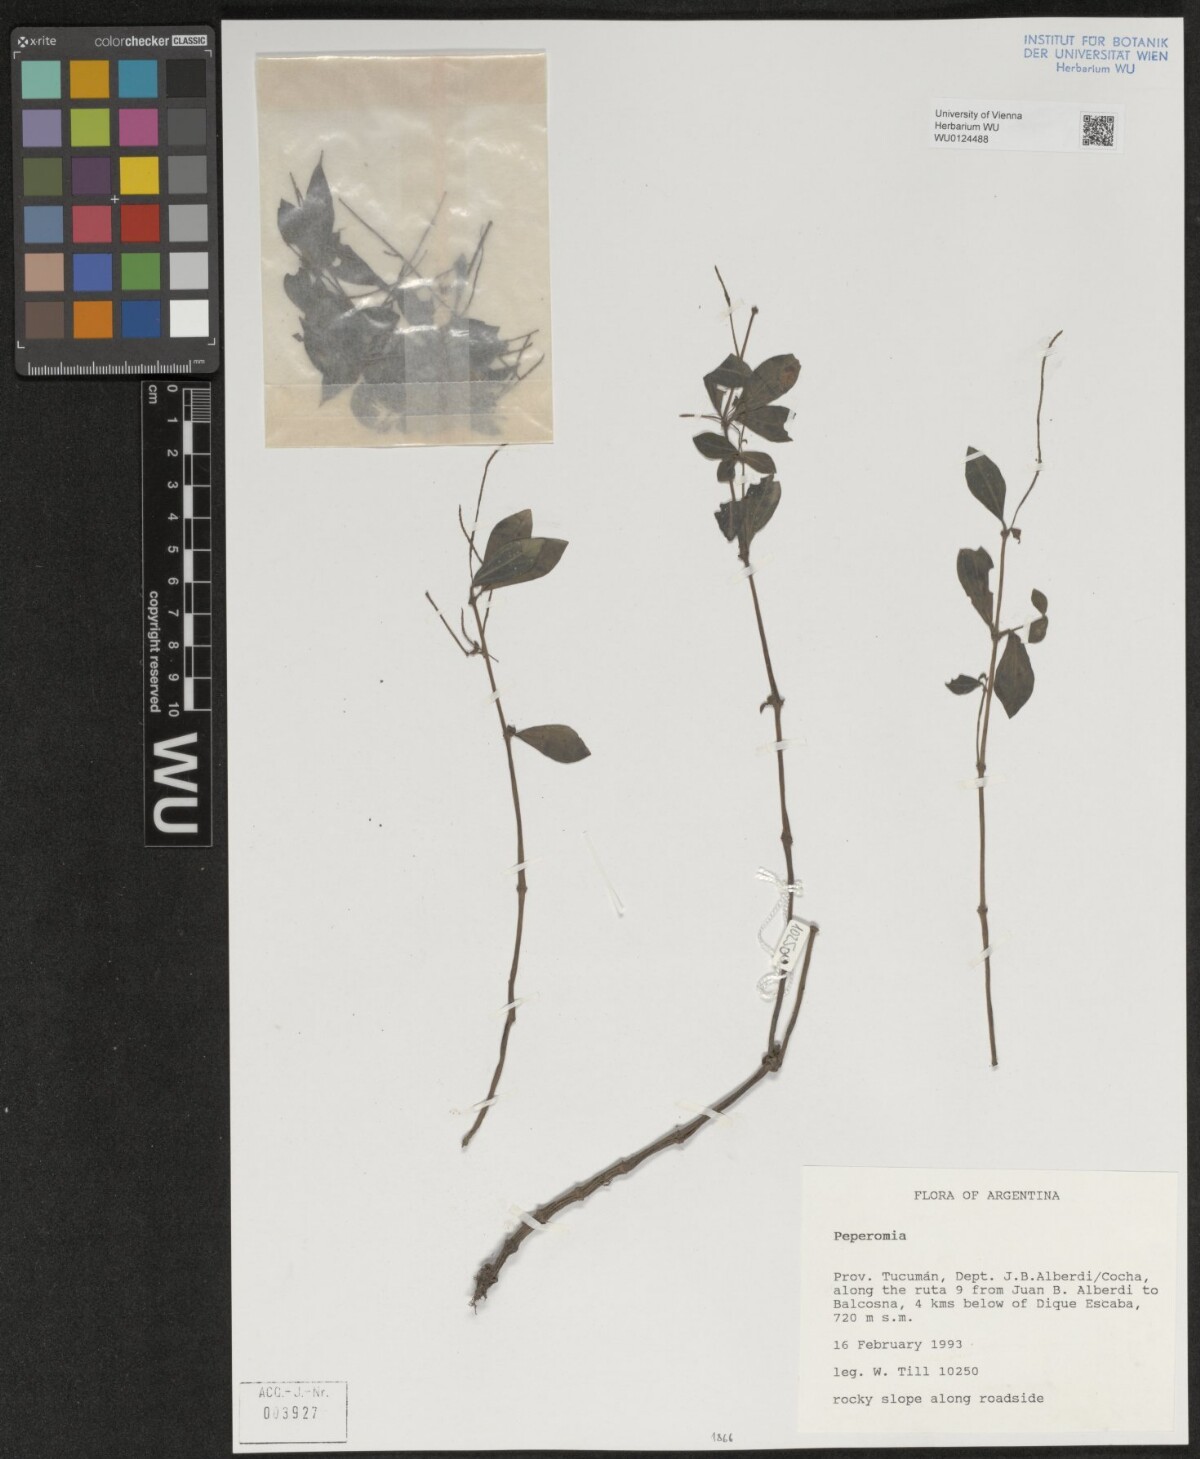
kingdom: Plantae
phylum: Tracheophyta
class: Magnoliopsida
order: Piperales
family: Piperaceae
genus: Peperomia
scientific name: Peperomia
